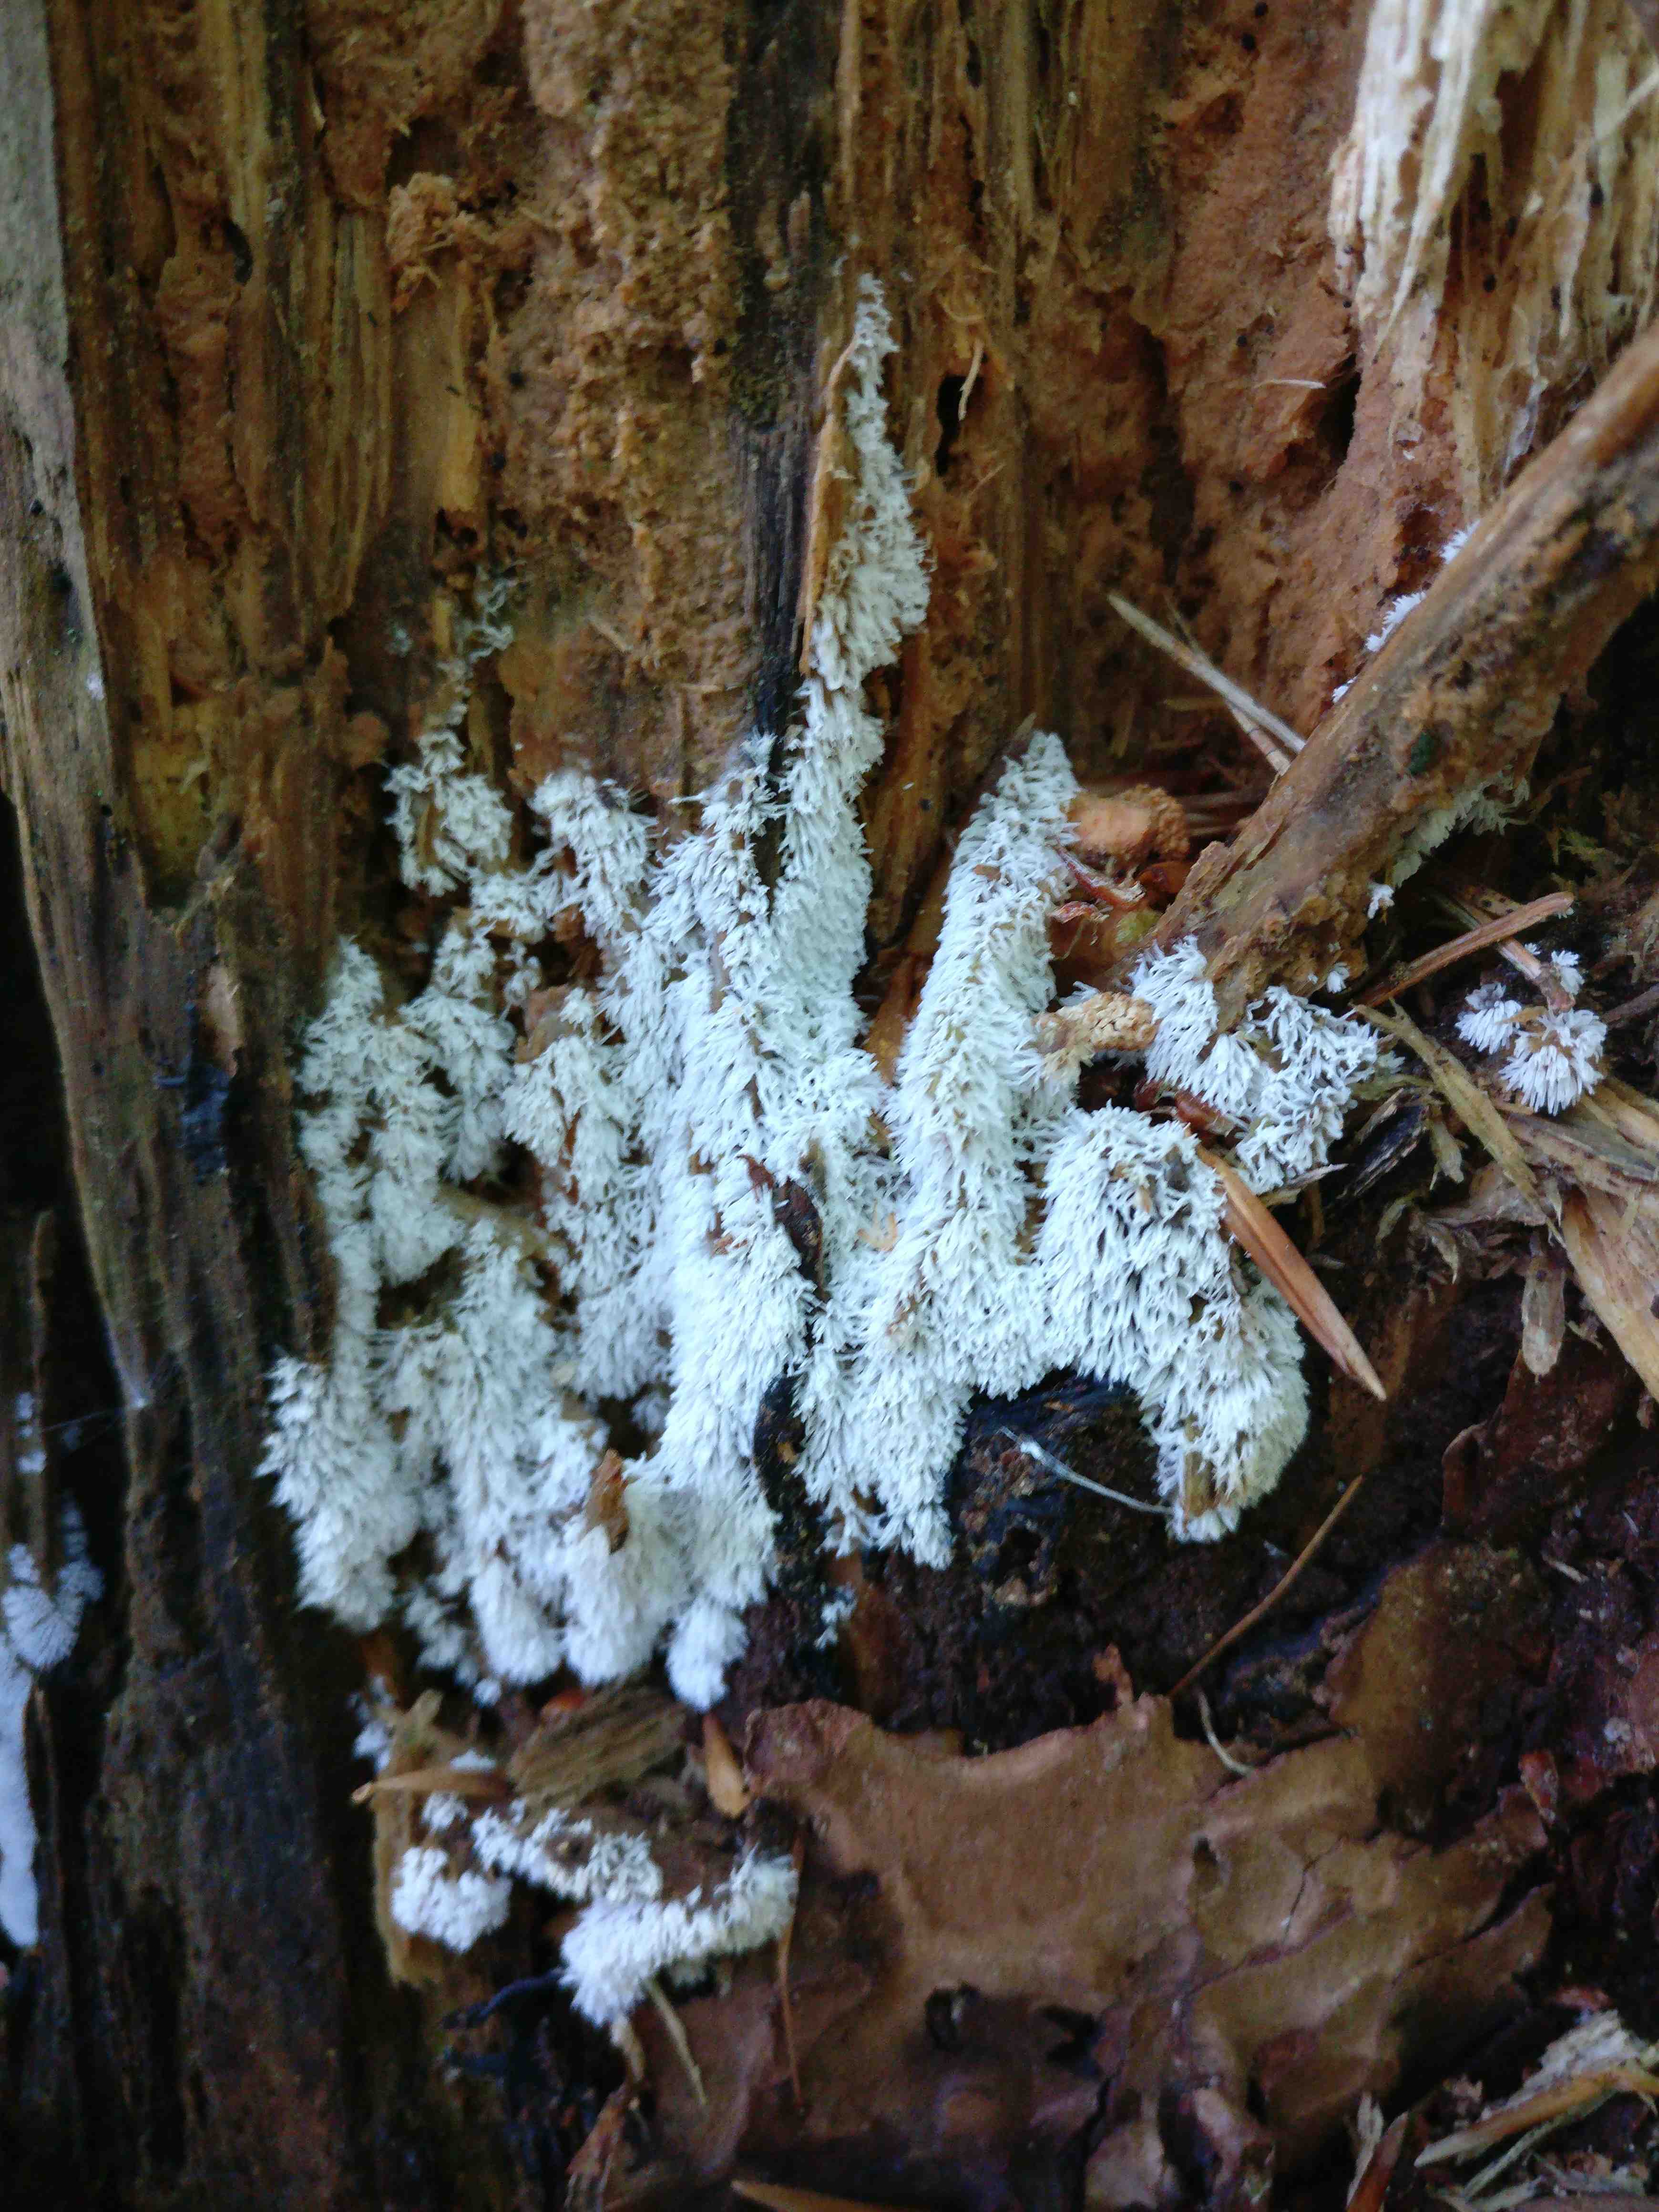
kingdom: Protozoa
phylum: Mycetozoa
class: Protosteliomycetes
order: Ceratiomyxales
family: Ceratiomyxaceae
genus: Ceratiomyxa
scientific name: Ceratiomyxa fruticulosa
